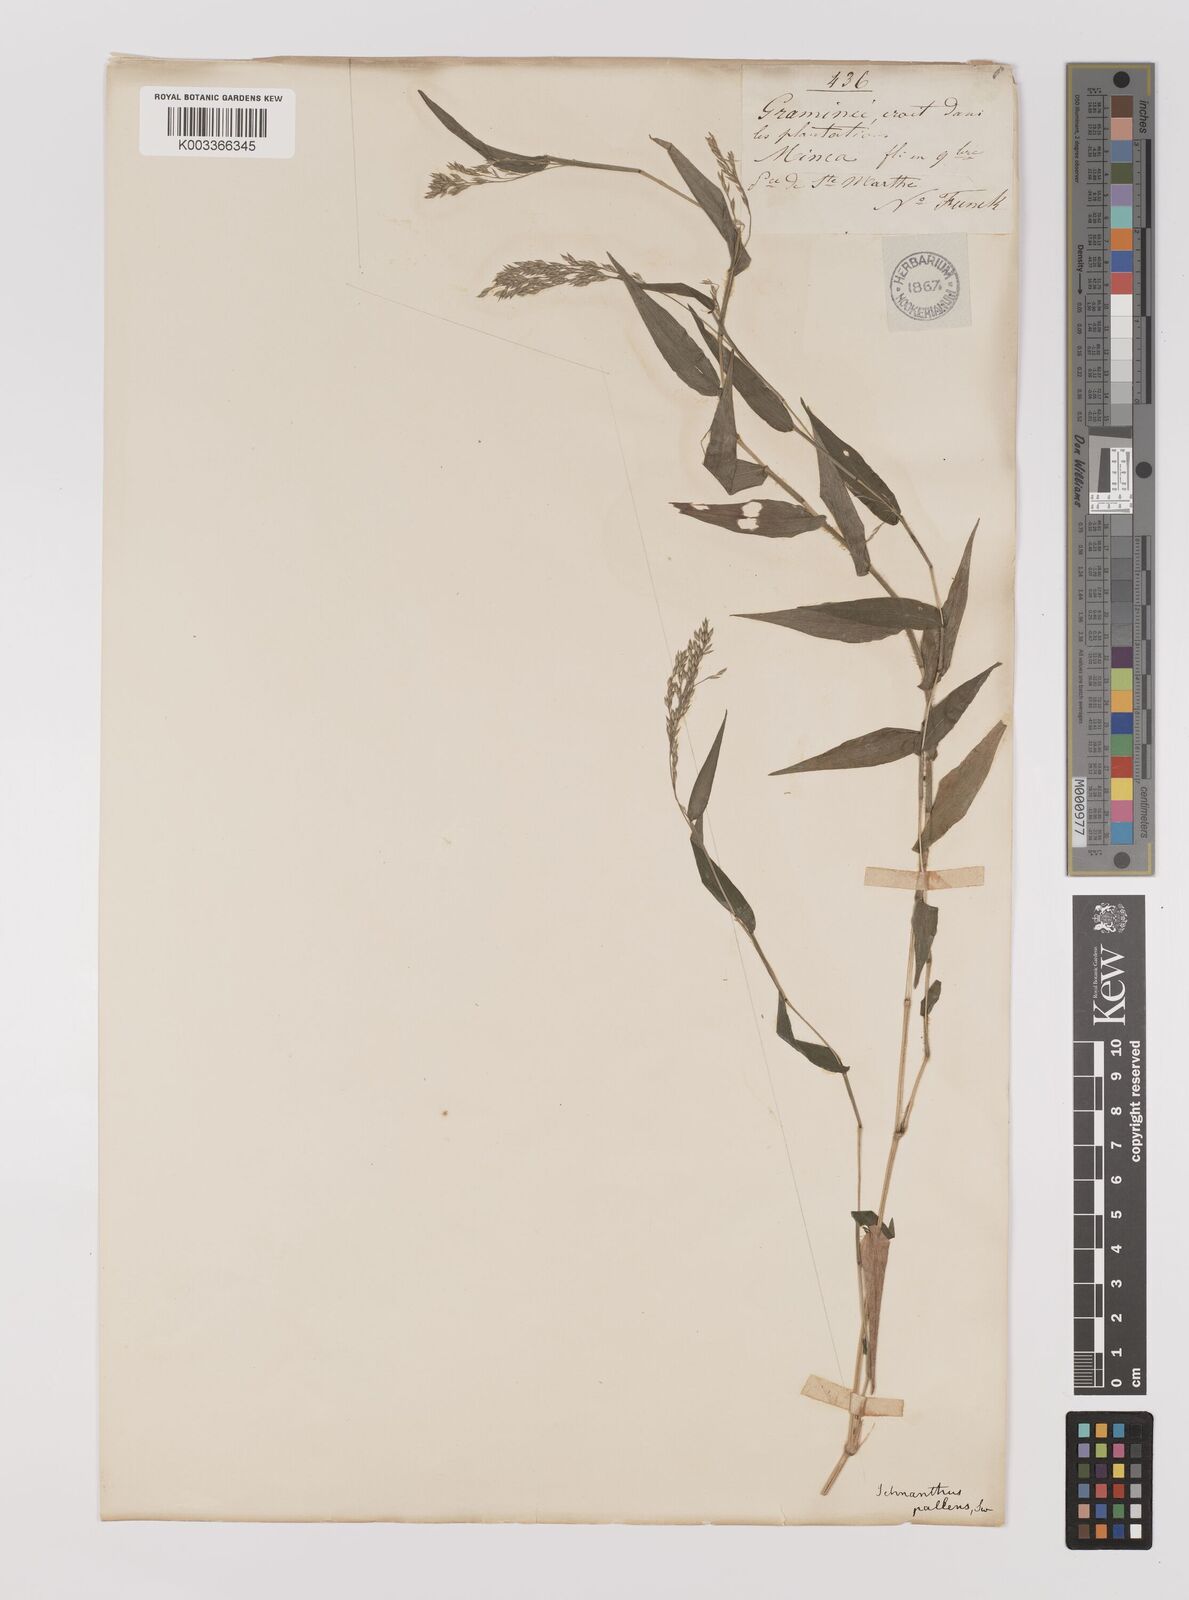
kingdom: Plantae
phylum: Tracheophyta
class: Liliopsida
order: Poales
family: Poaceae
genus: Ichnanthus
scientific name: Ichnanthus tenuis
